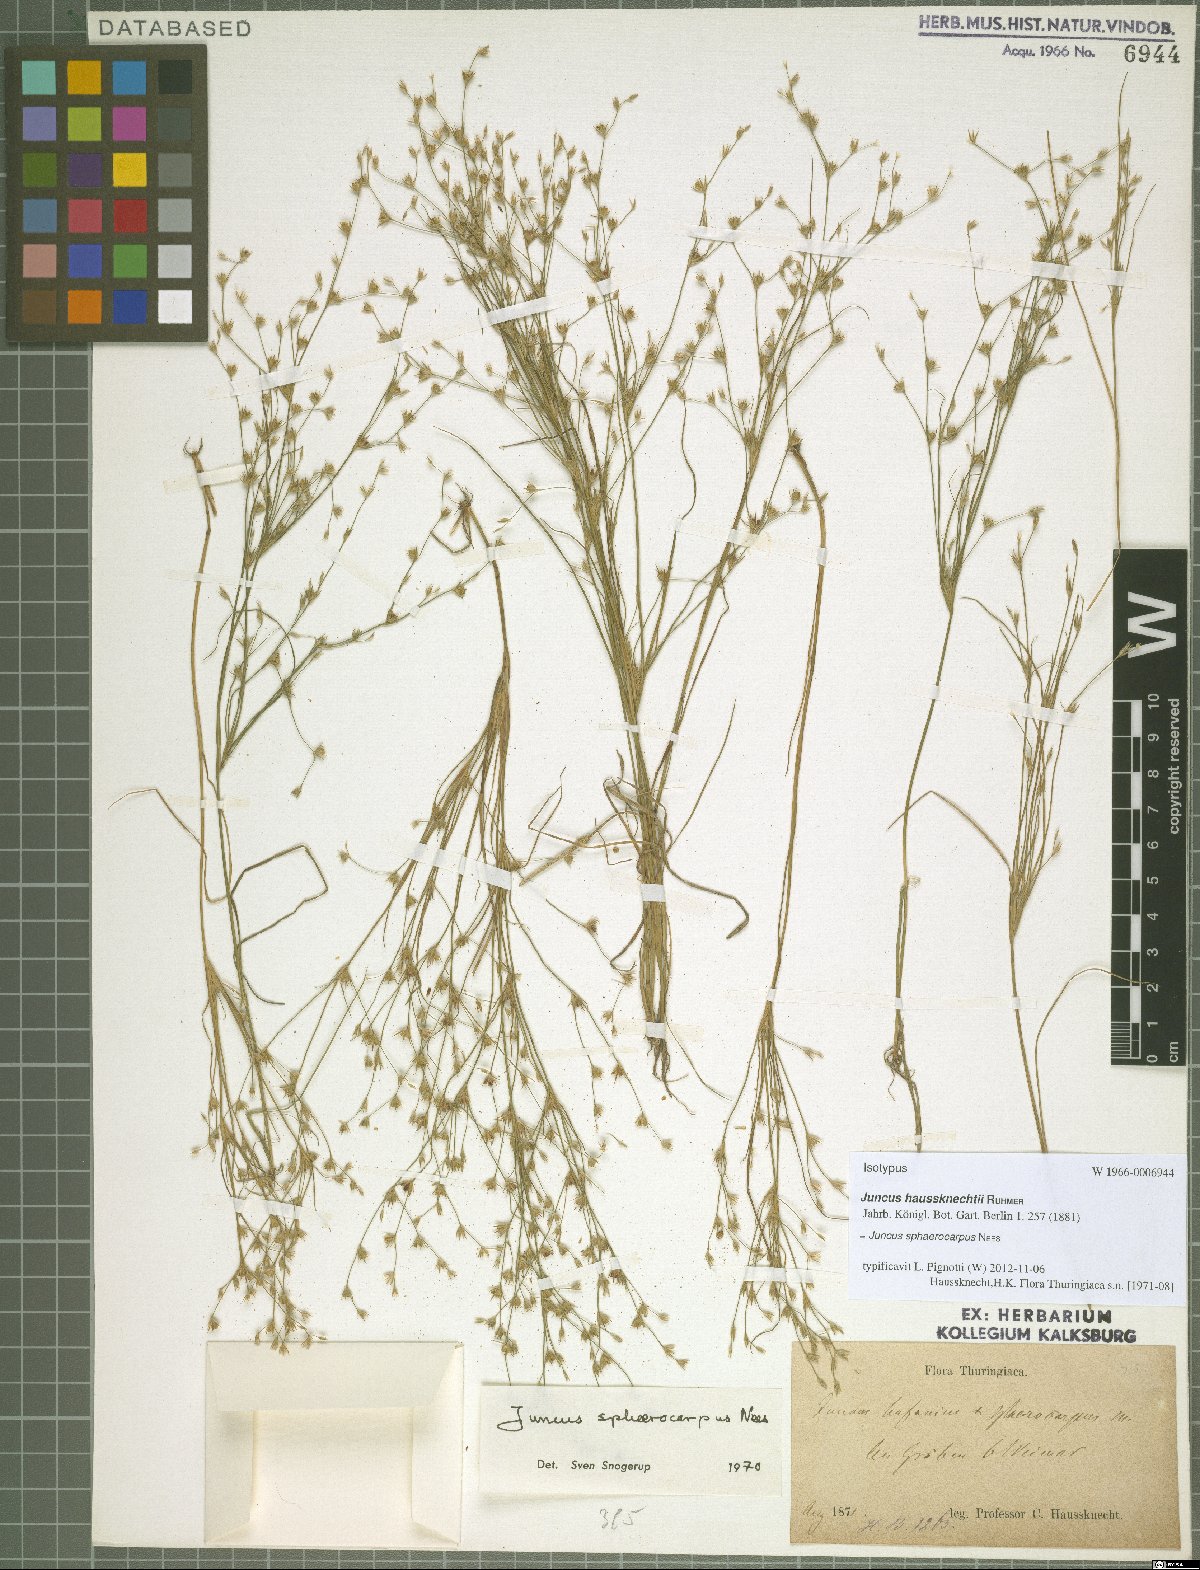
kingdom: Plantae
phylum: Tracheophyta
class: Liliopsida
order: Poales
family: Juncaceae
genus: Juncus
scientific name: Juncus sphaerocarpus
